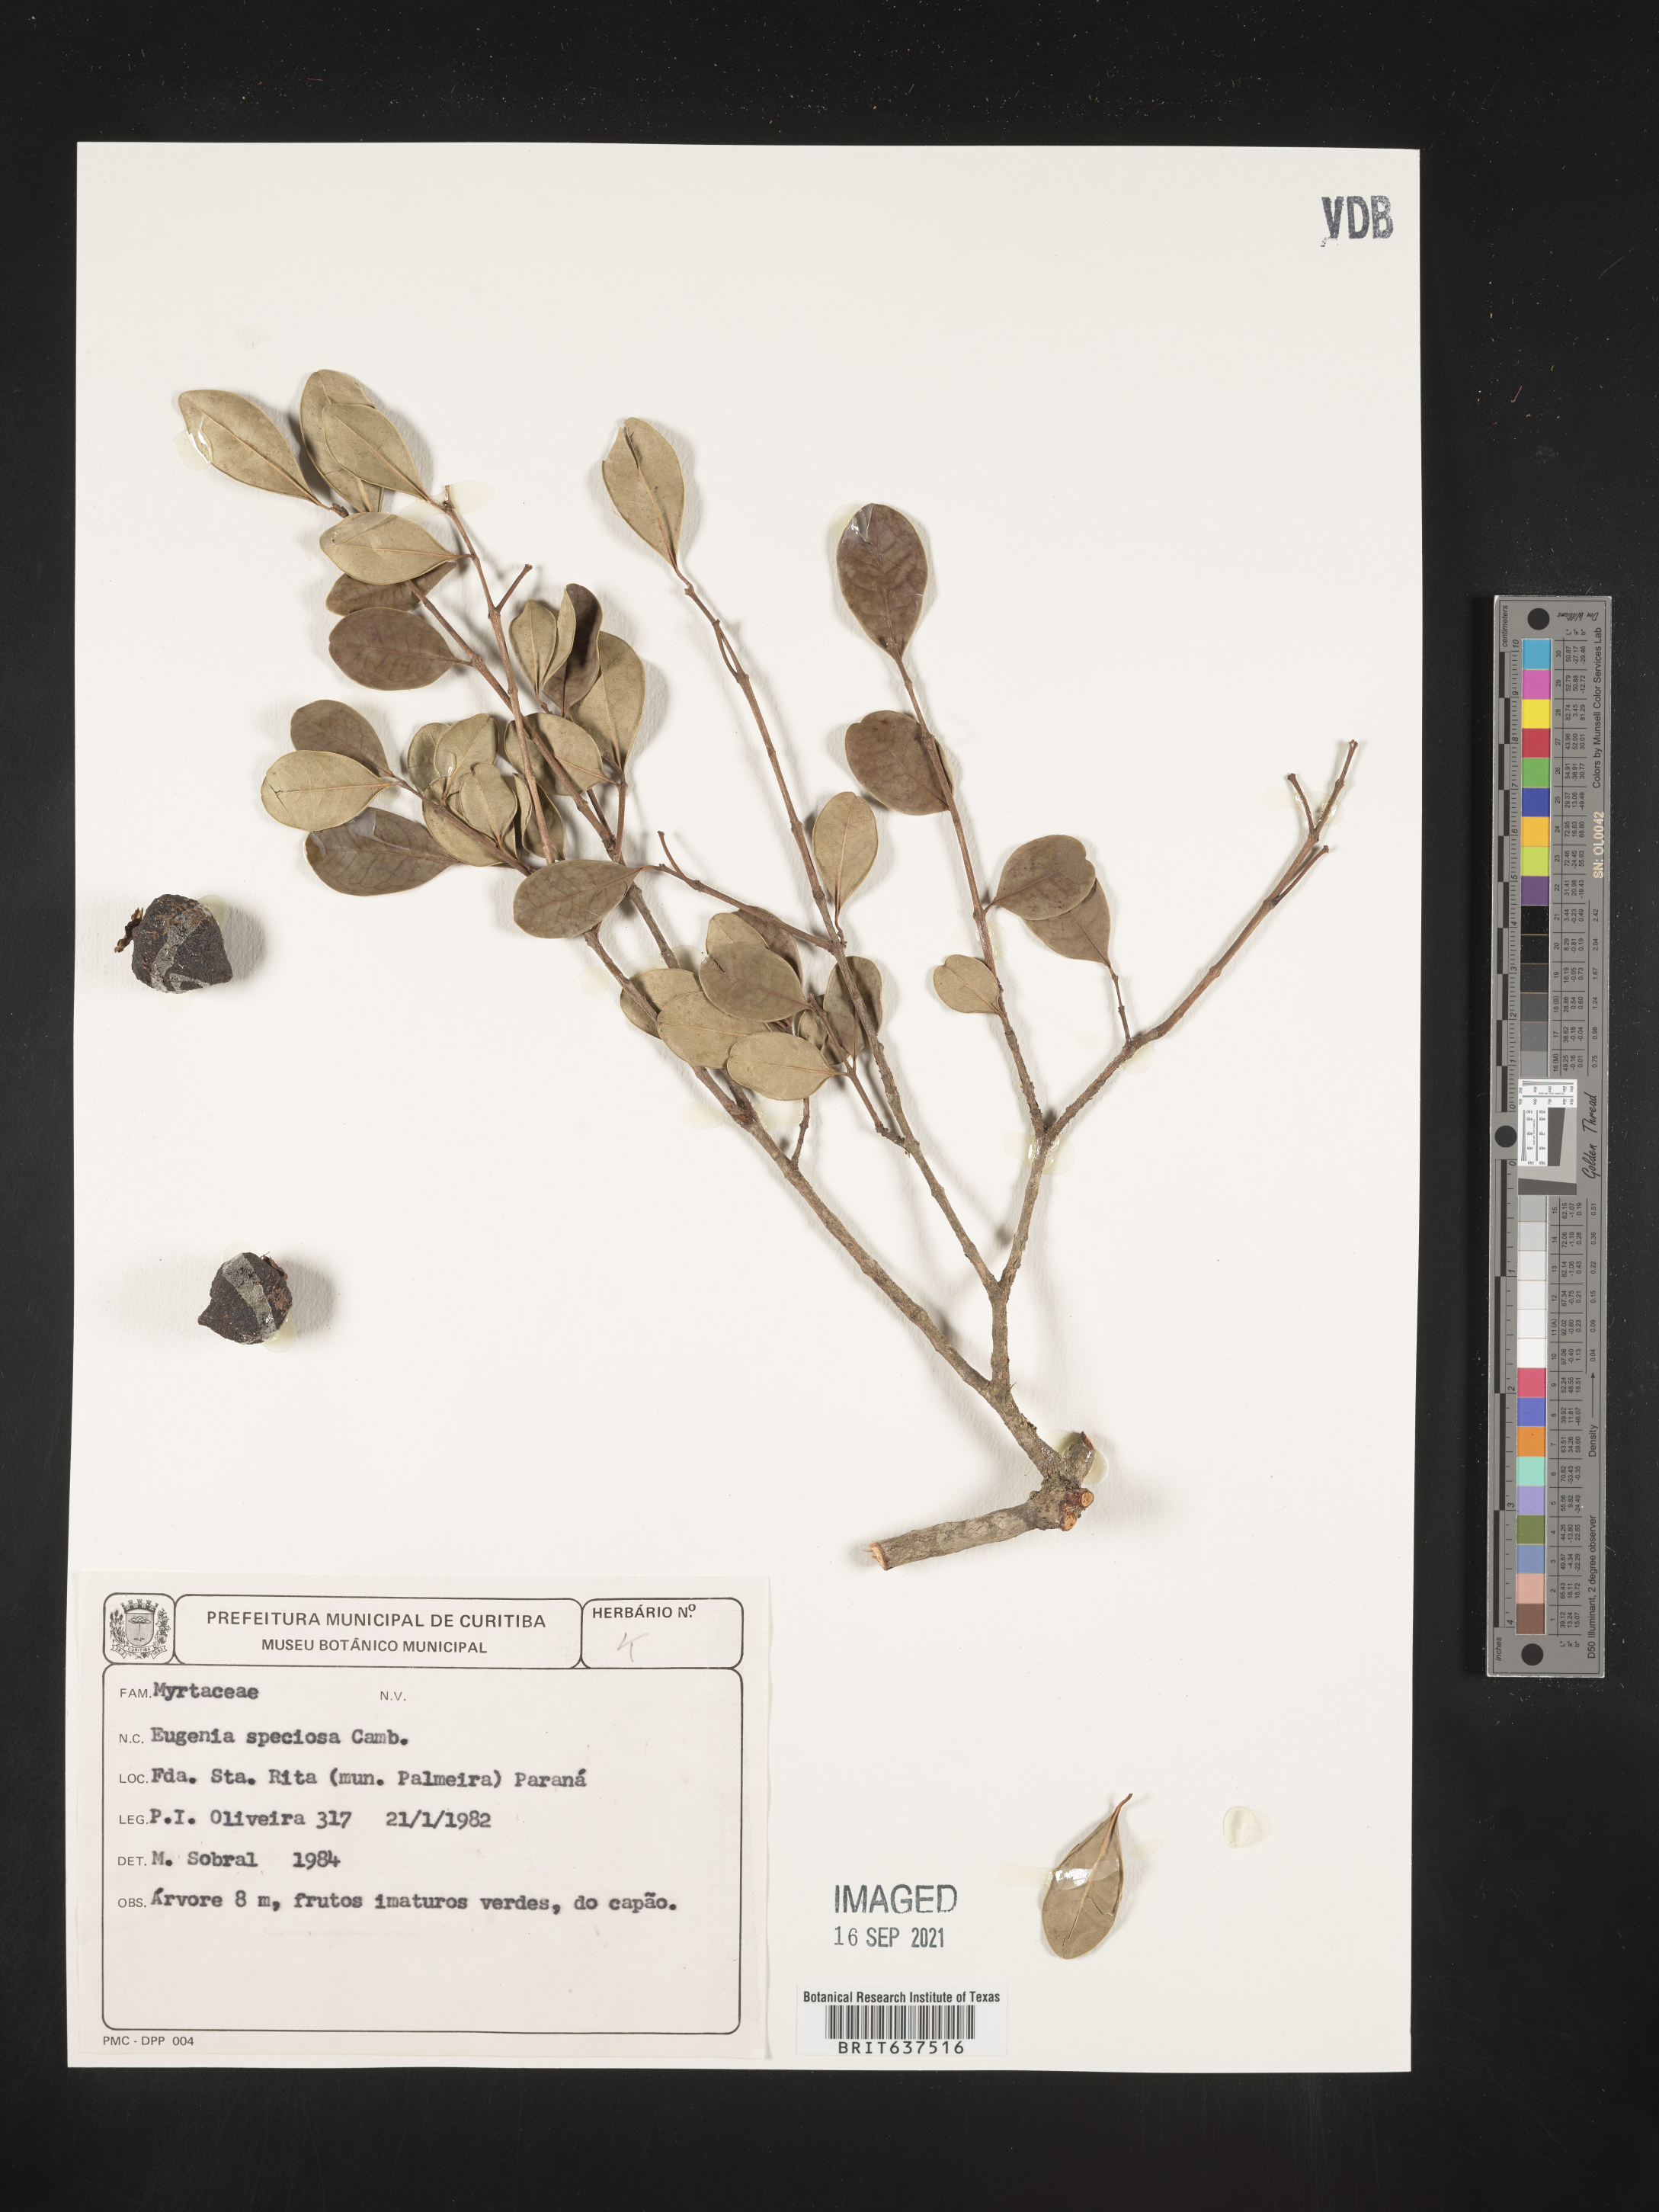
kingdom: Plantae
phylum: Tracheophyta
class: Magnoliopsida
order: Myrtales
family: Myrtaceae
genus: Eugenia
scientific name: Eugenia
